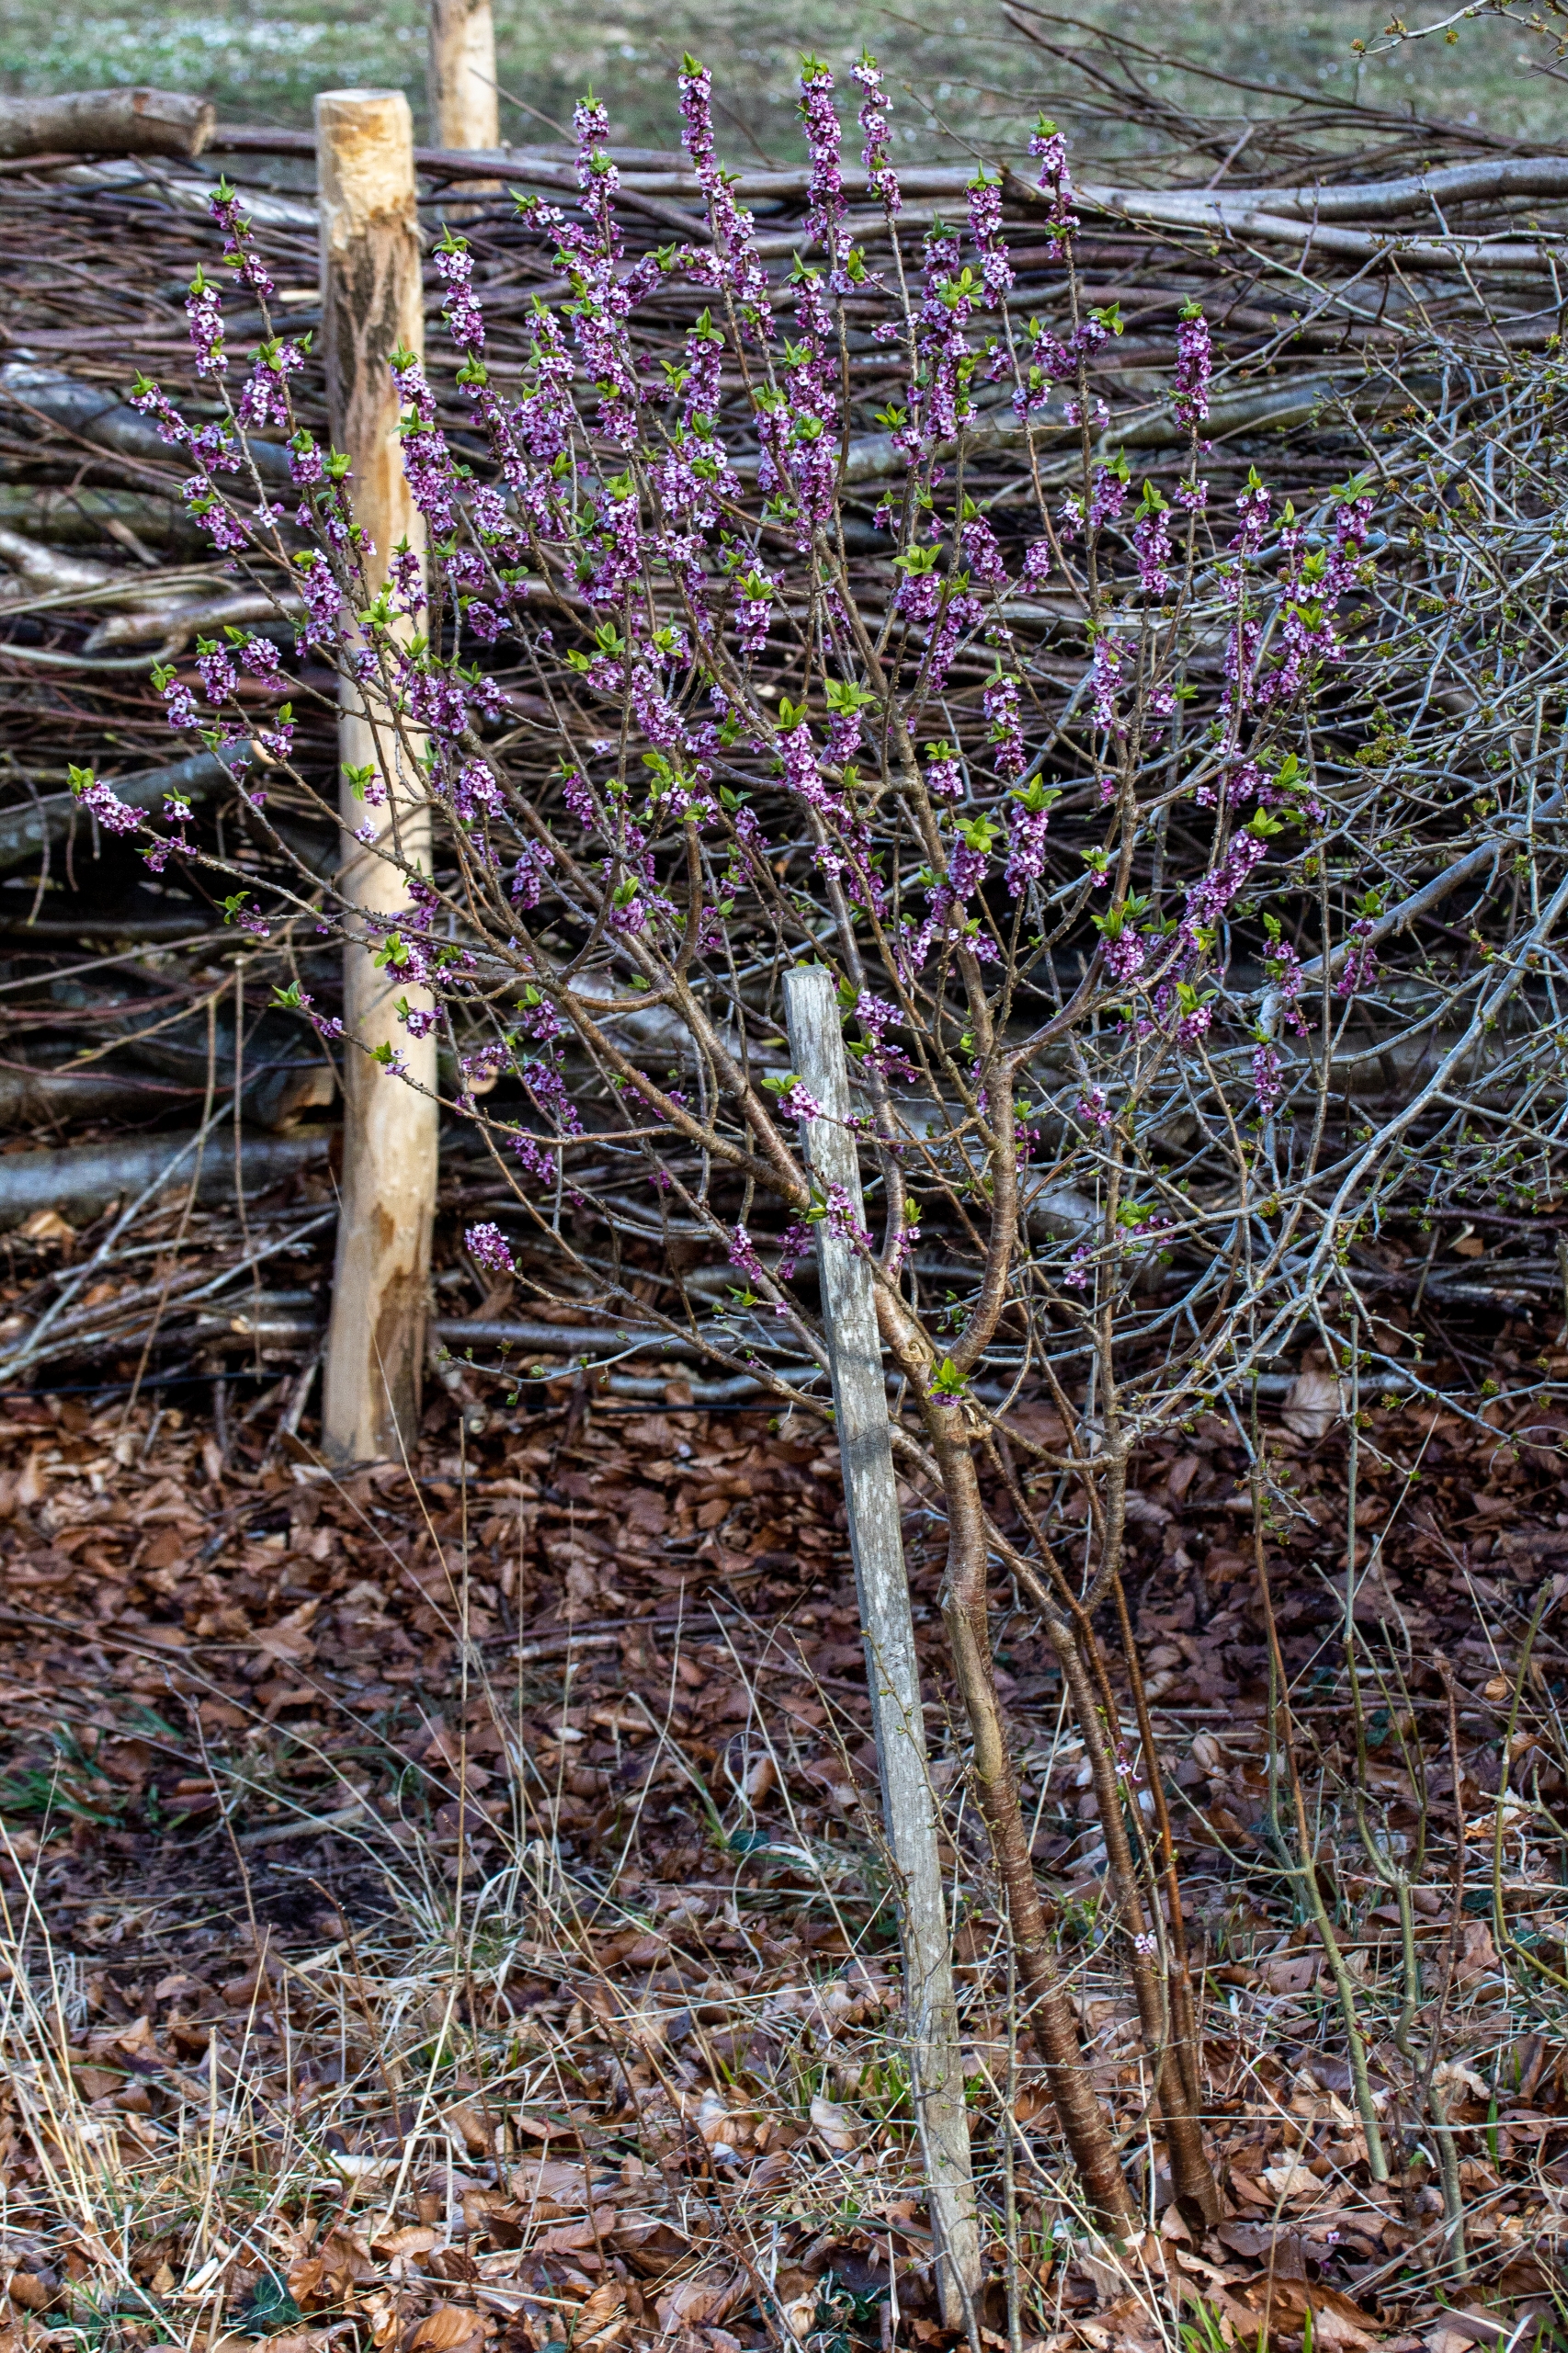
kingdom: Plantae
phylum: Tracheophyta
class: Magnoliopsida
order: Malvales
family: Thymelaeaceae
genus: Daphne
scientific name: Daphne mezereum
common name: Pebertræ
